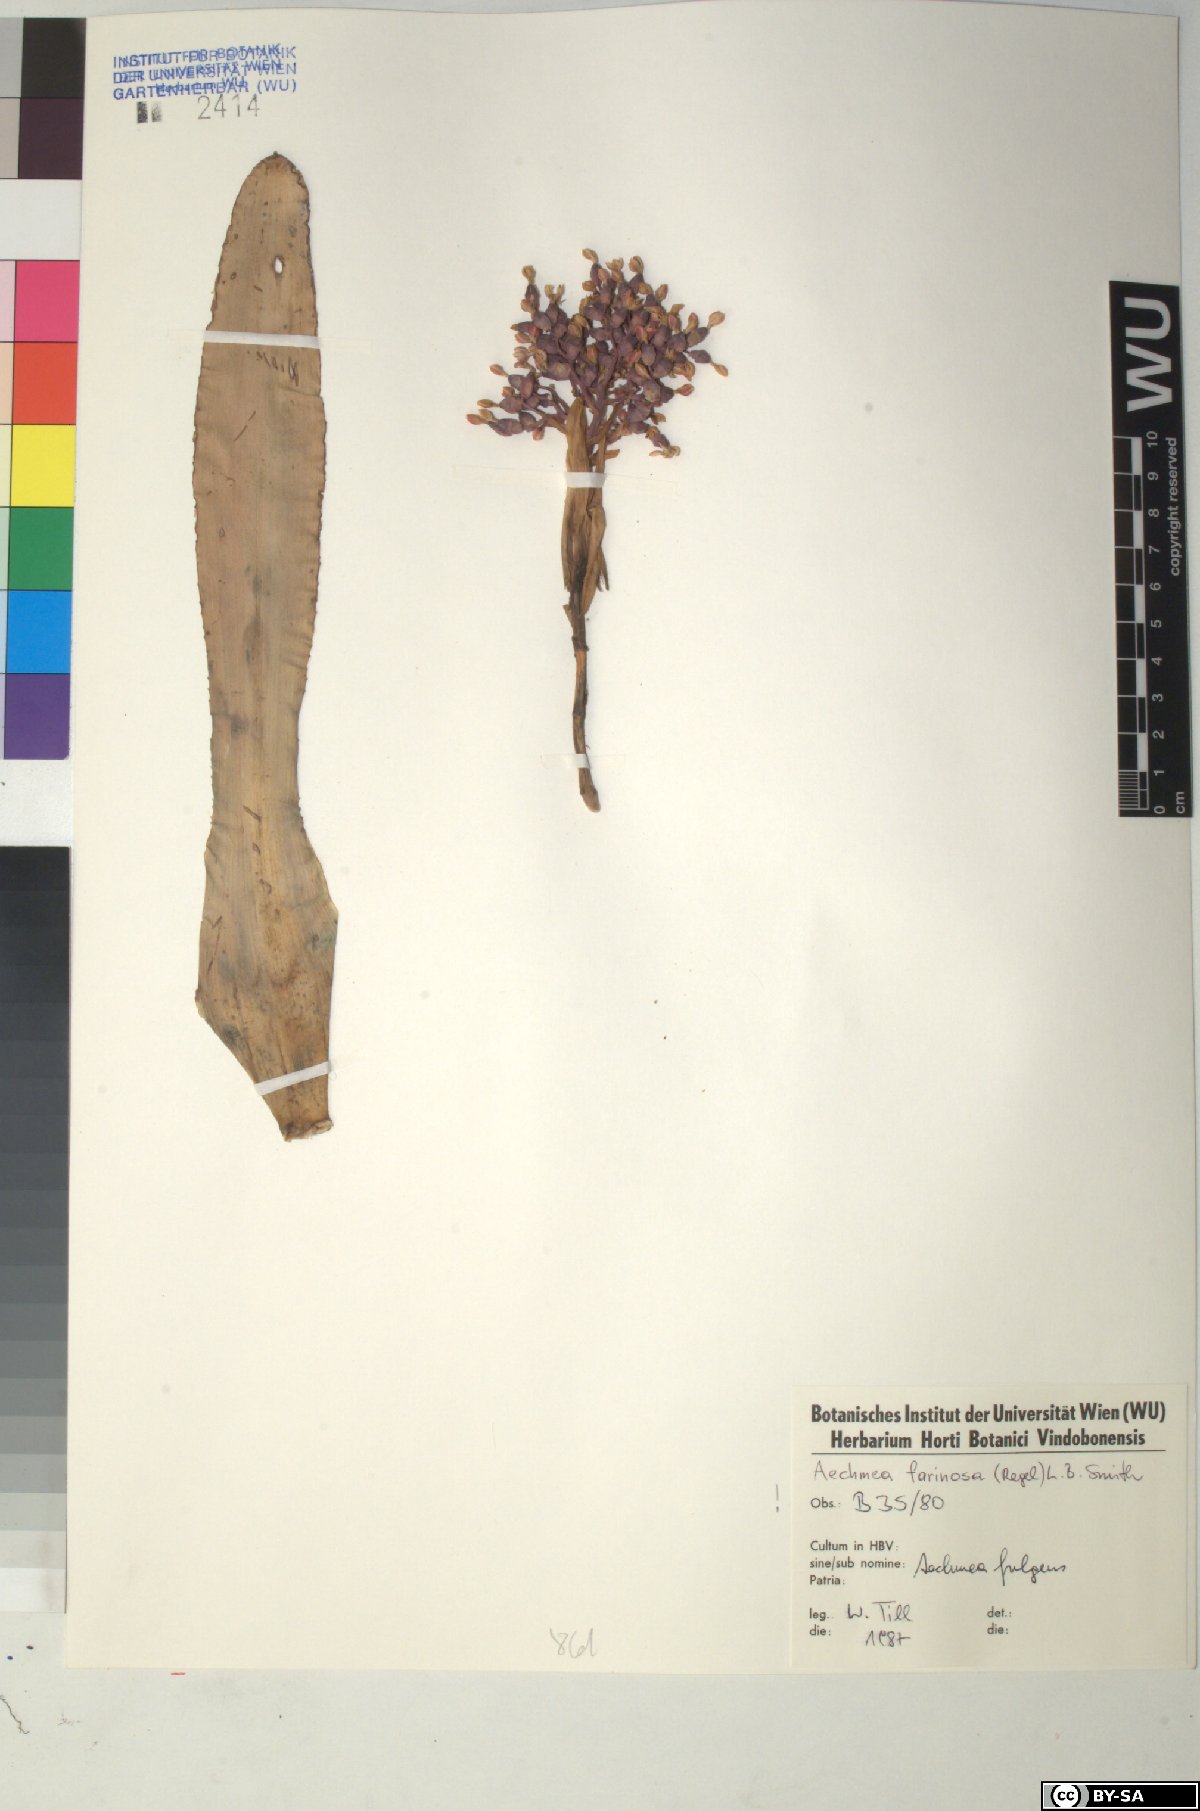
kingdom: Plantae
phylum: Tracheophyta
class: Liliopsida
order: Poales
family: Bromeliaceae
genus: Aechmea
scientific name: Aechmea farinosa
